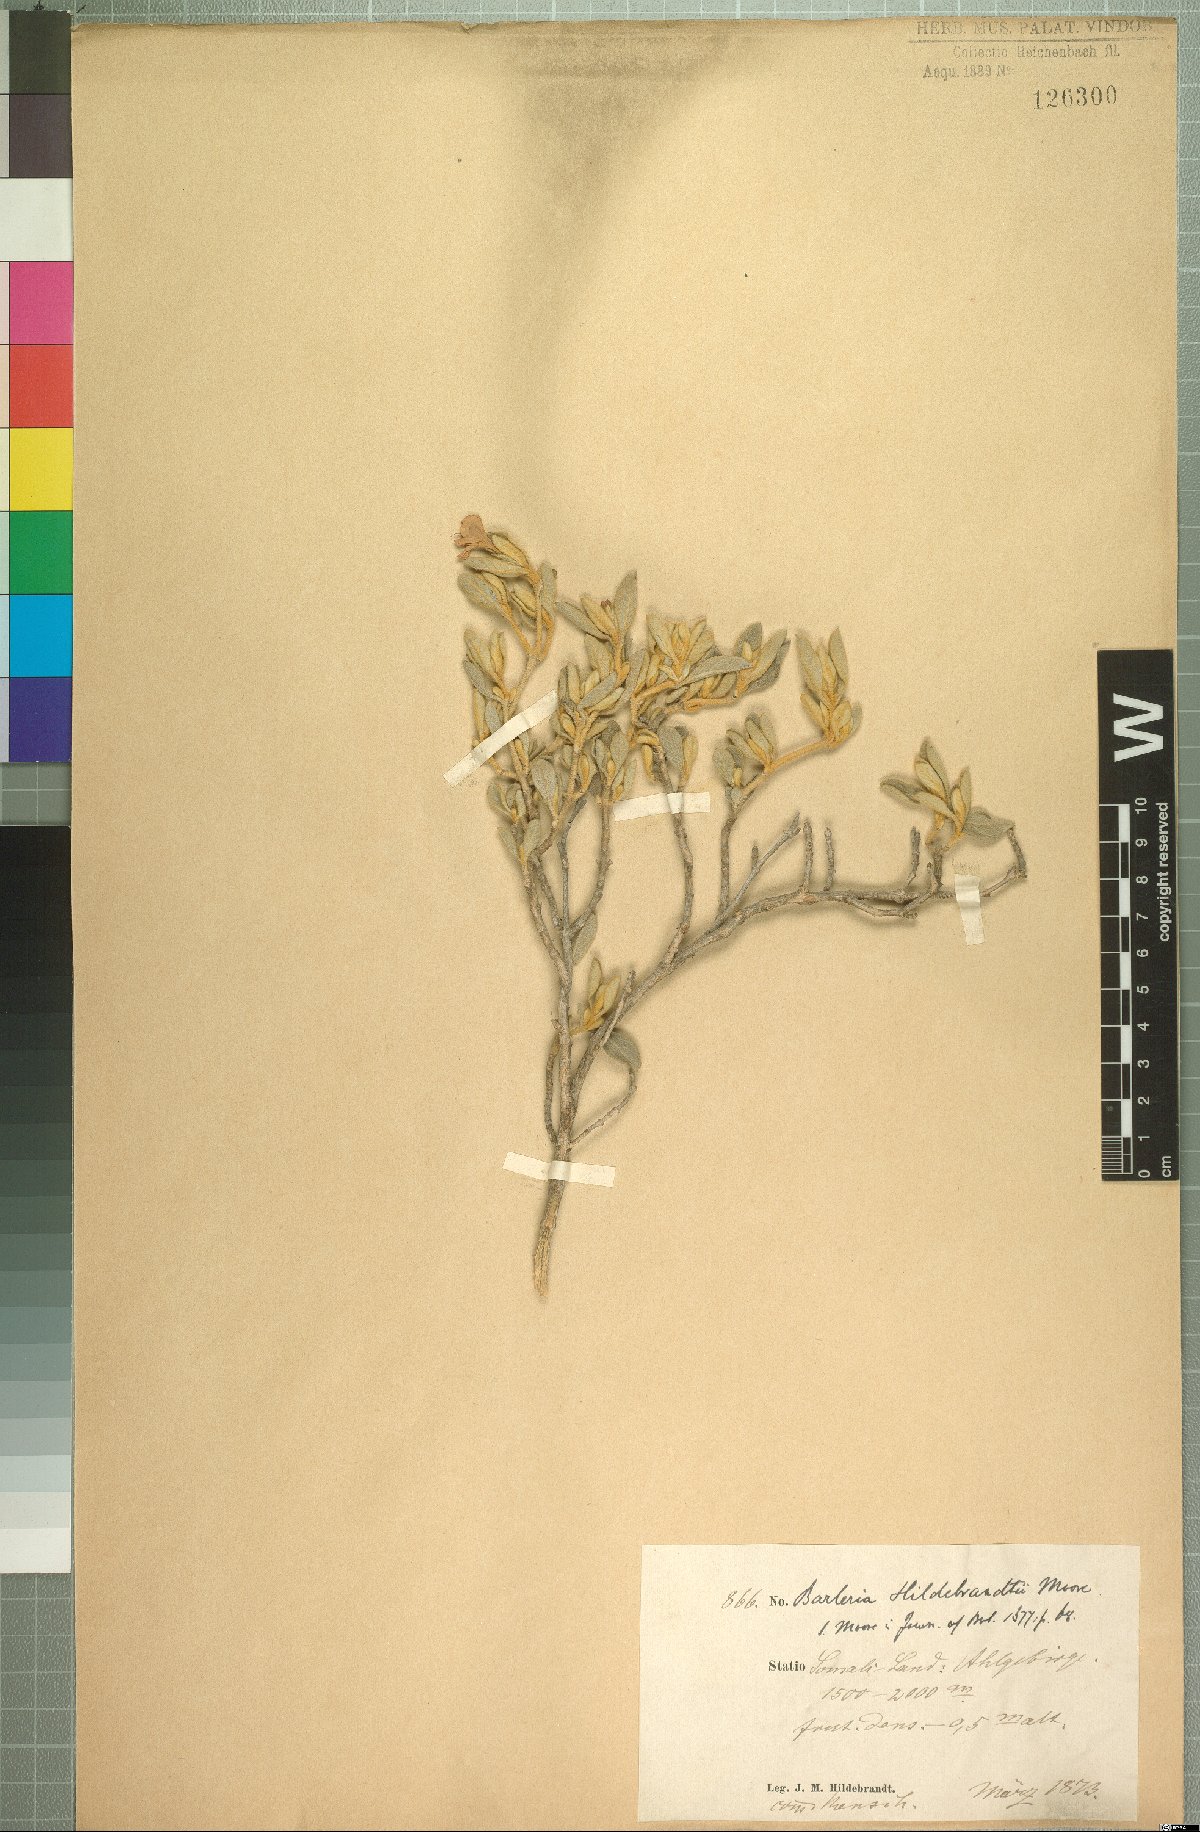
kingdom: Plantae
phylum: Tracheophyta
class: Magnoliopsida
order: Lamiales
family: Acanthaceae
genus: Barleria
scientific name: Barleria hildebrandtii
